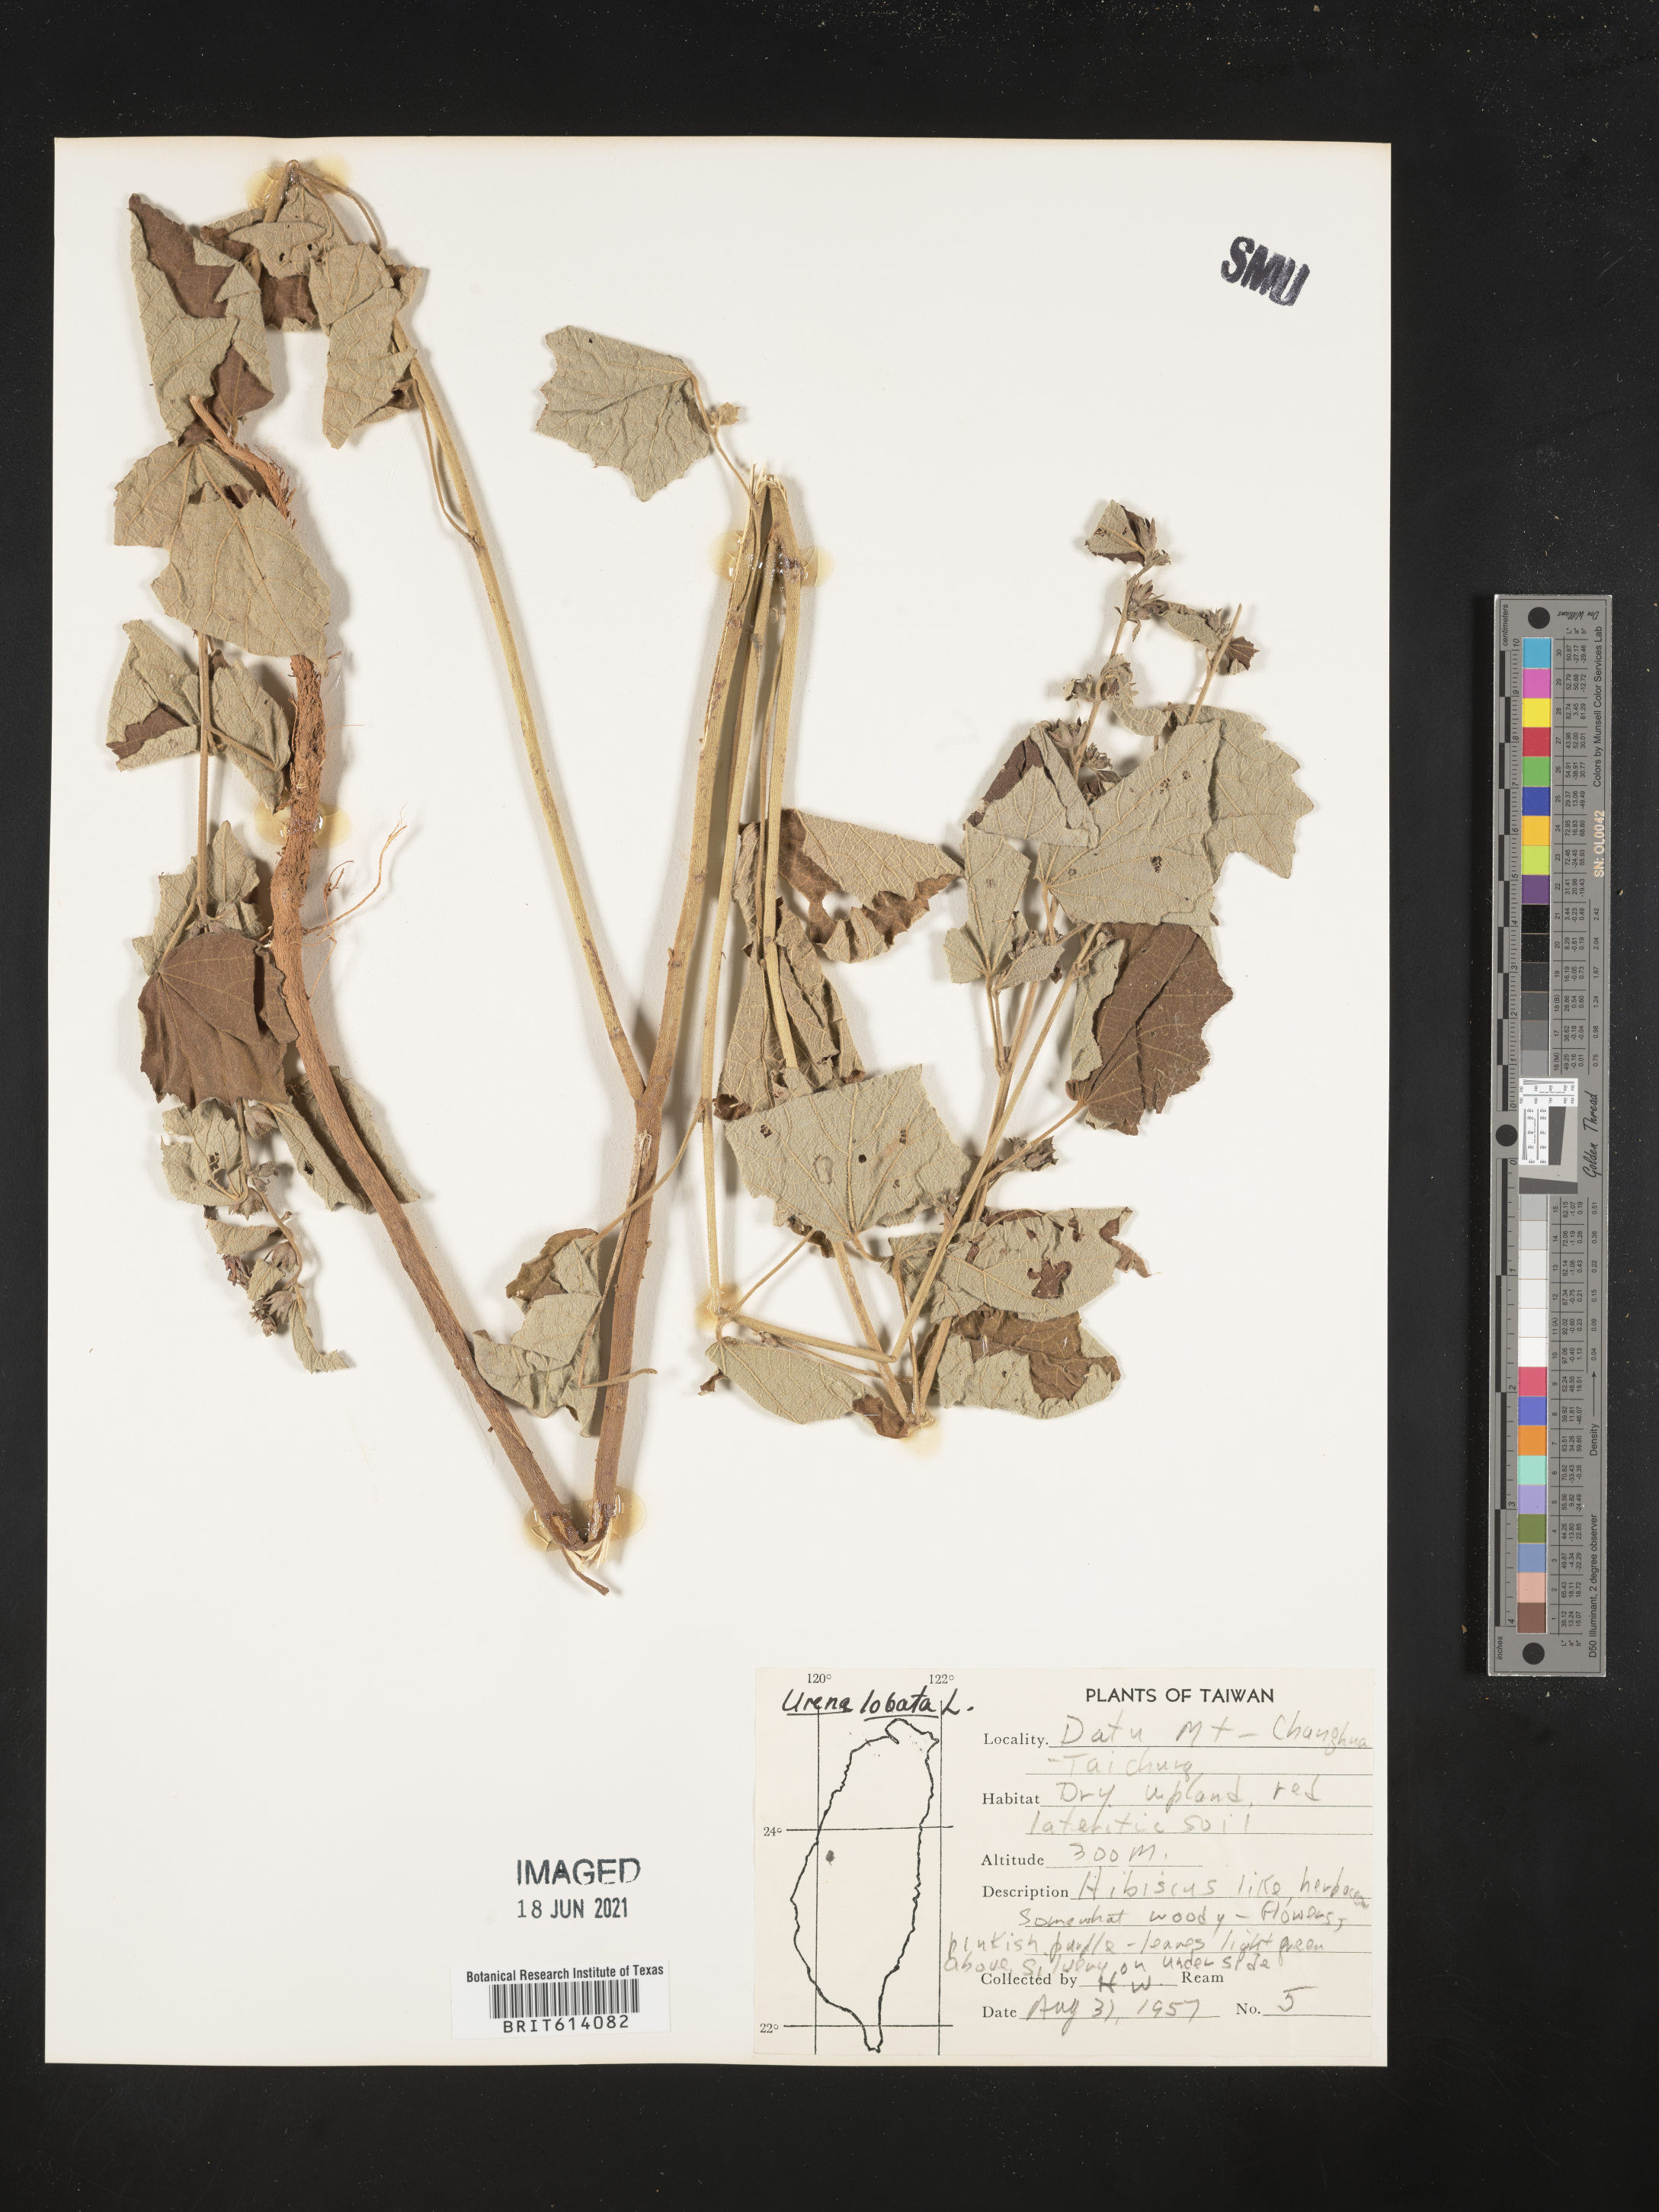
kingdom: Plantae
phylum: Tracheophyta
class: Magnoliopsida
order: Malvales
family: Malvaceae
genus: Urena
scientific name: Urena lobata
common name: Caesarweed
